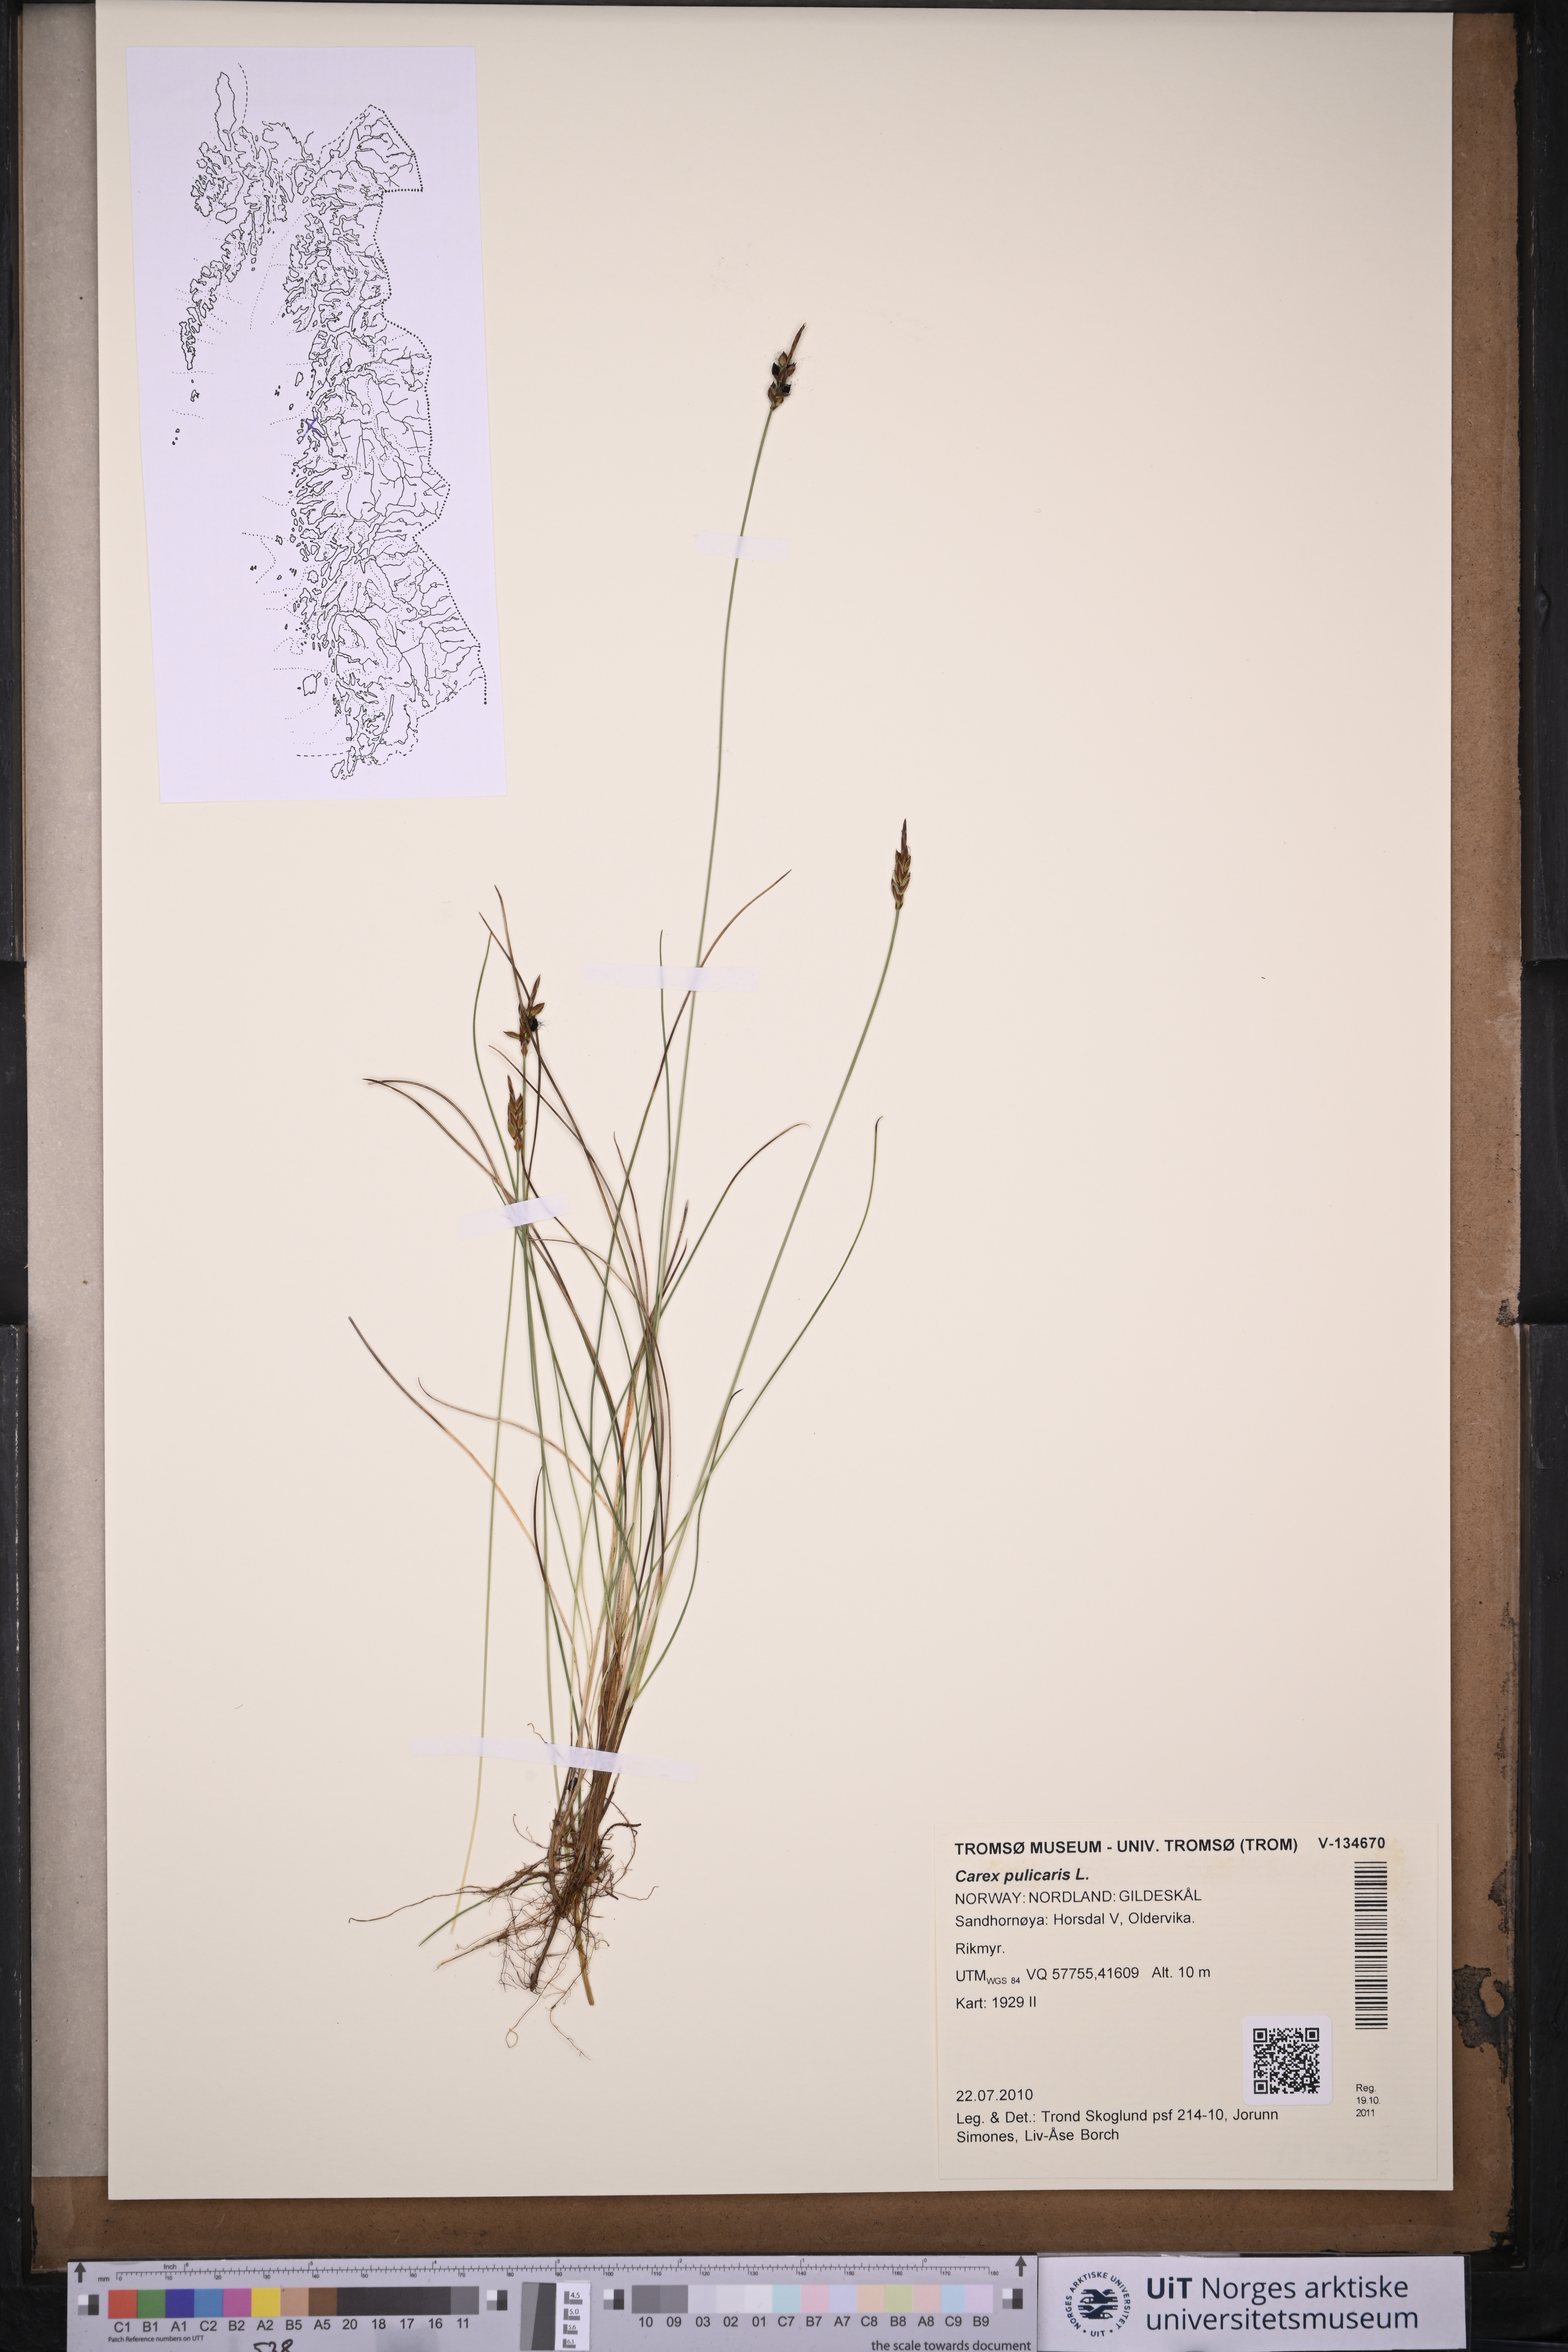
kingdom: Plantae
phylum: Tracheophyta
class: Liliopsida
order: Poales
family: Cyperaceae
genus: Carex
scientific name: Carex pulicaris
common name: Flea sedge
